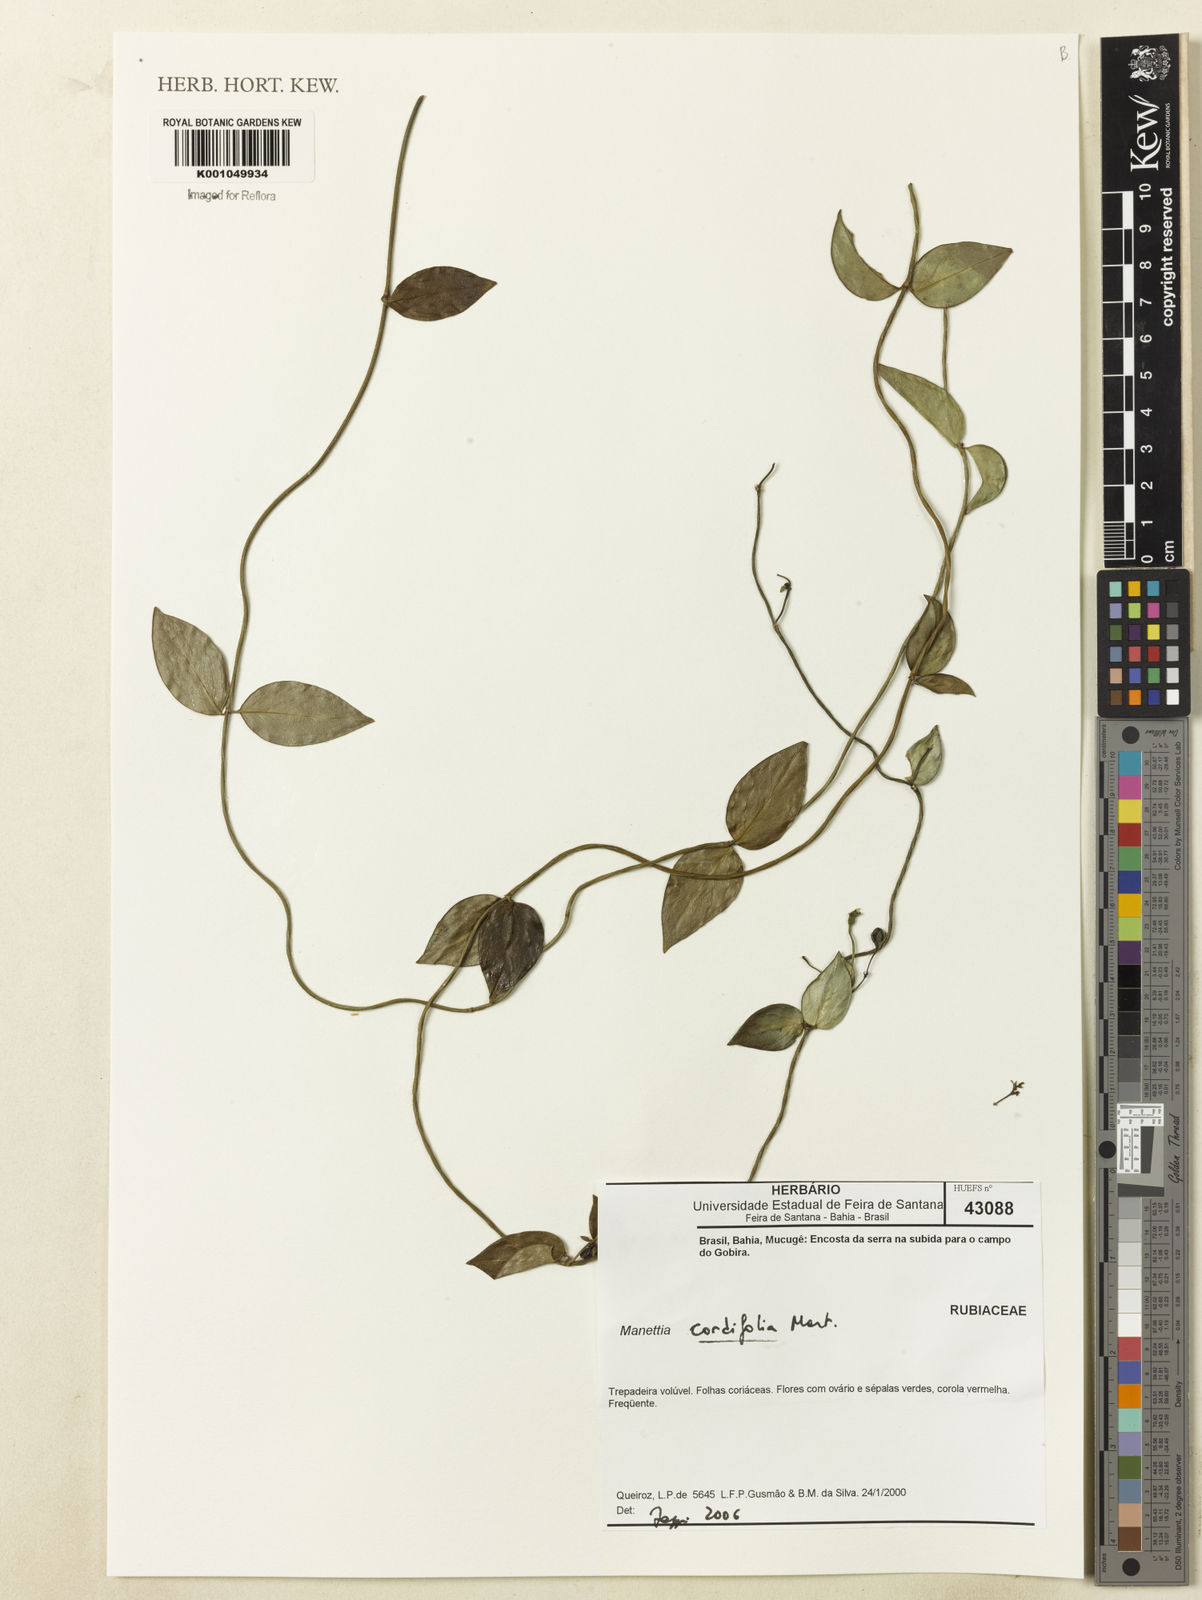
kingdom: Plantae
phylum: Tracheophyta
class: Magnoliopsida
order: Gentianales
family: Rubiaceae
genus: Manettia
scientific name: Manettia cordifolia
